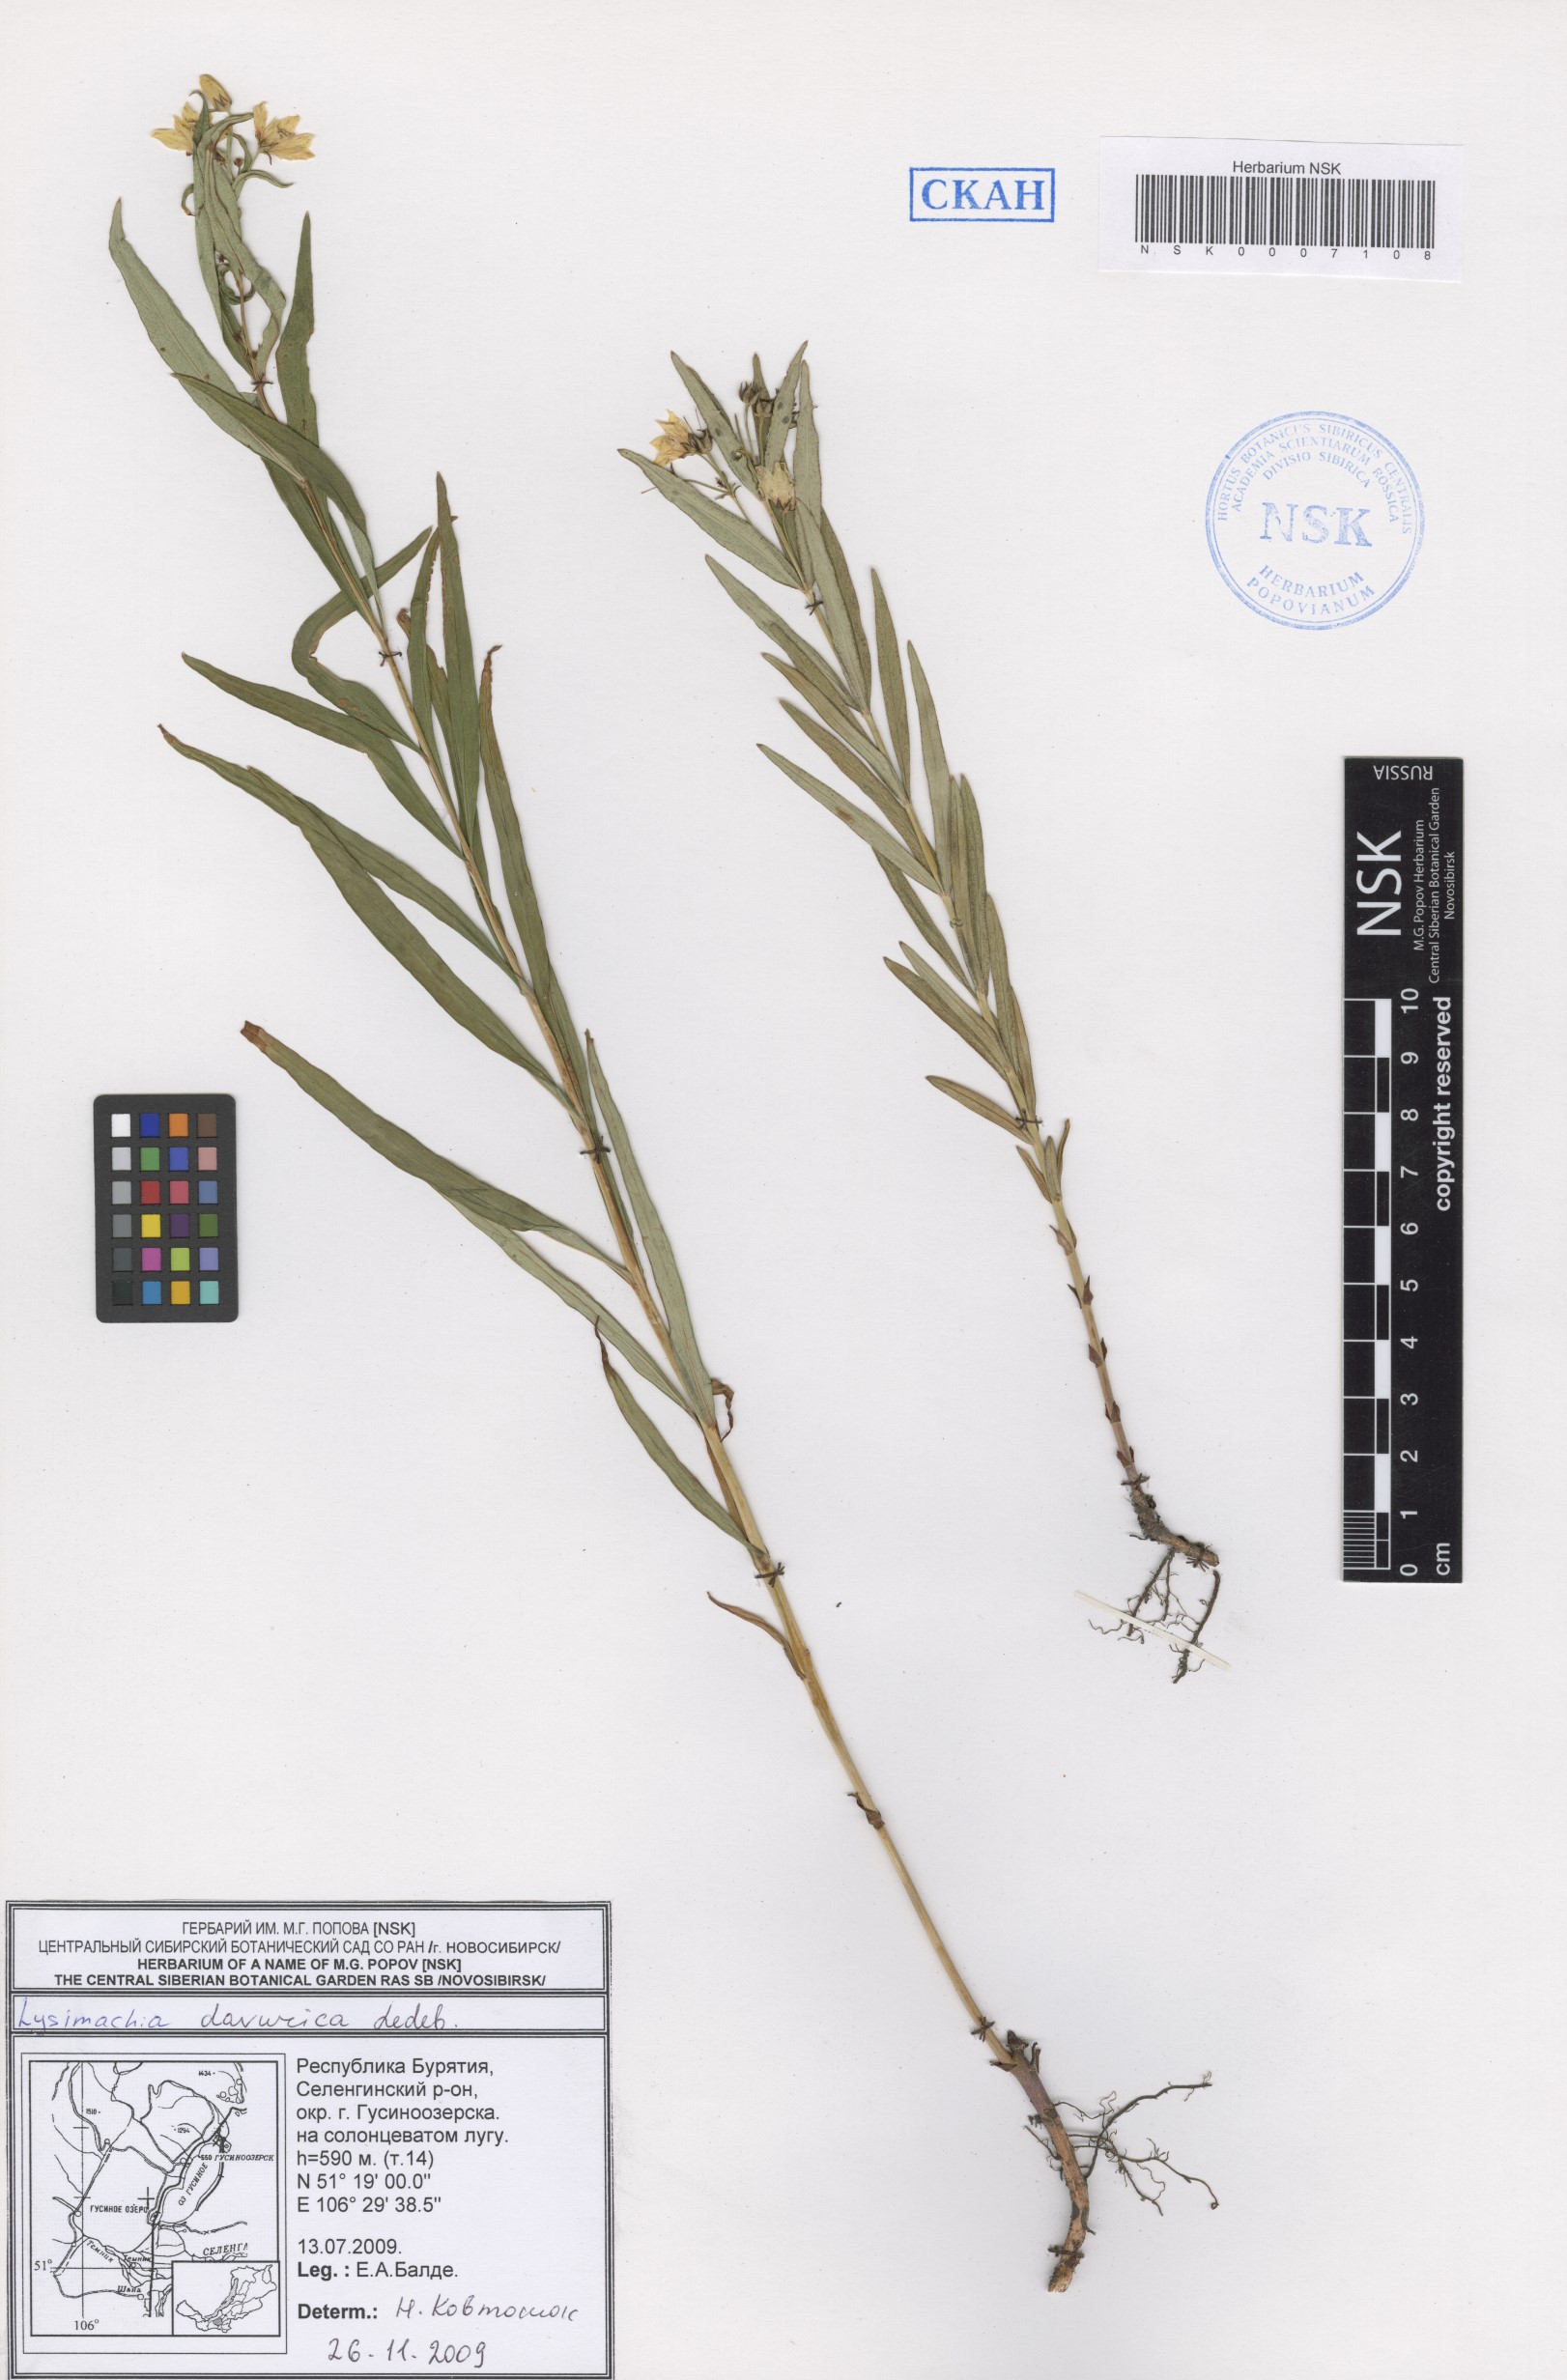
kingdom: Plantae
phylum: Tracheophyta
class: Magnoliopsida
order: Ericales
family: Primulaceae
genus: Lysimachia
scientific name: Lysimachia davurica
